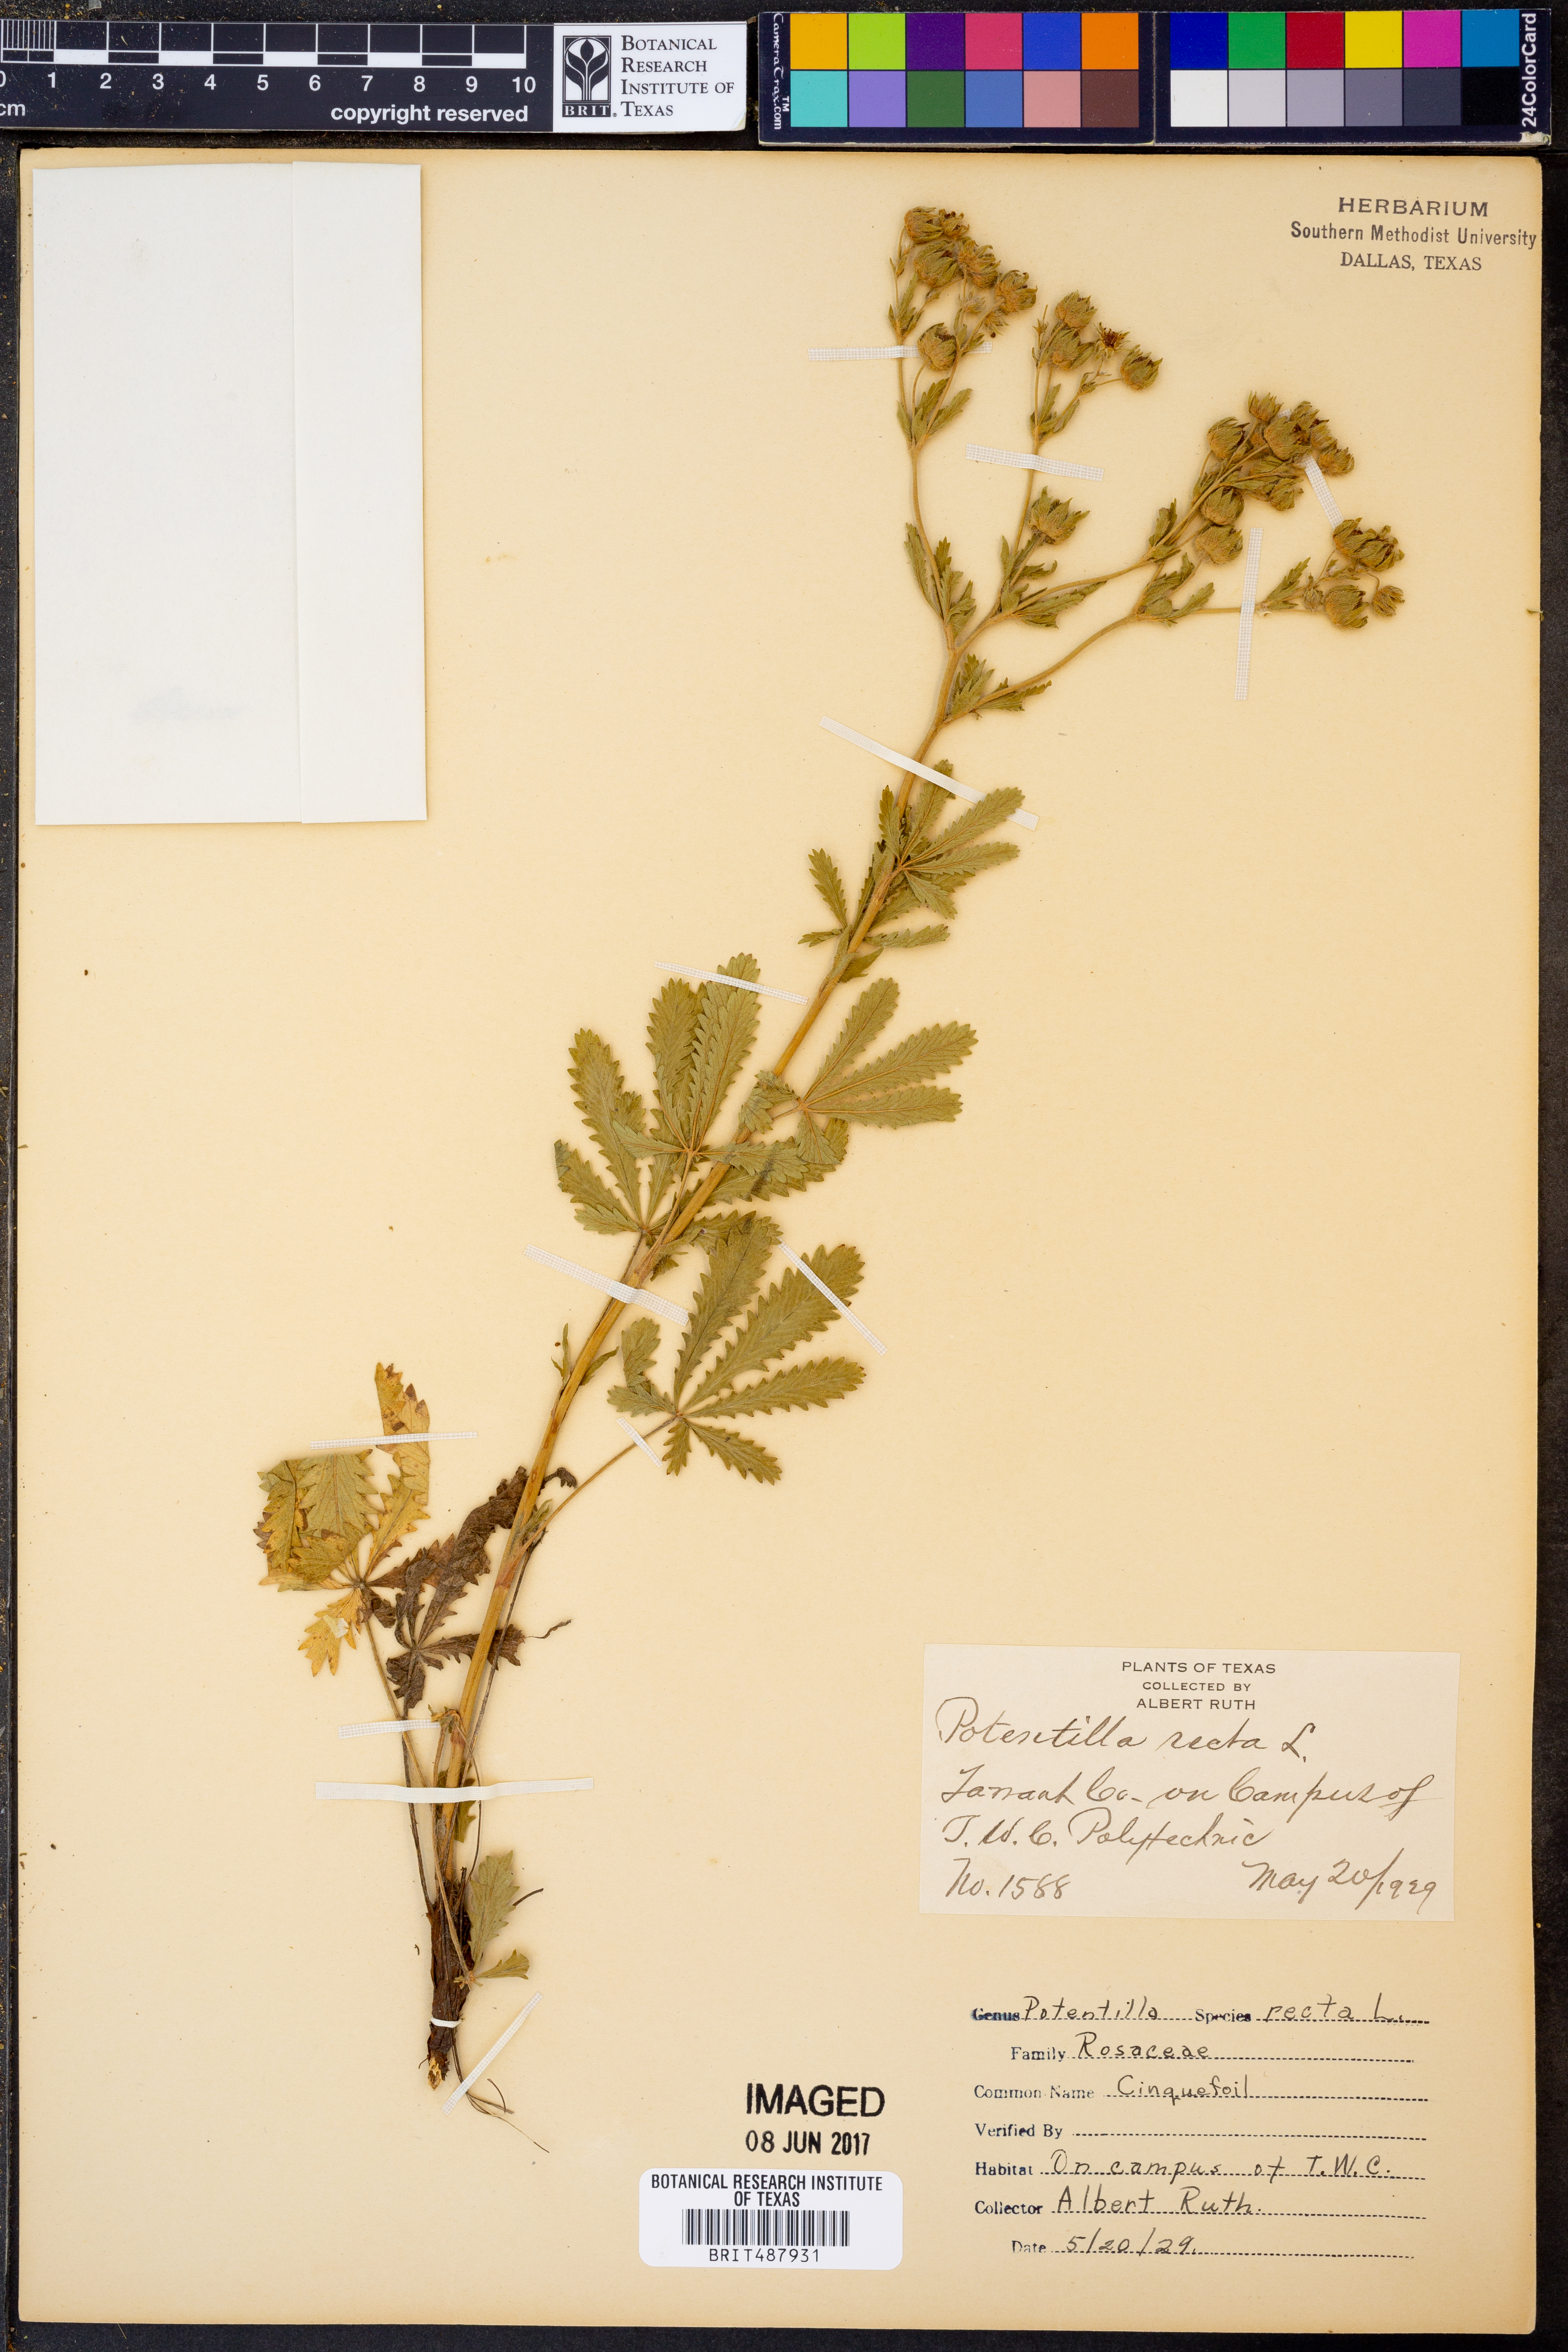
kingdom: Plantae
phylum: Tracheophyta
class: Magnoliopsida
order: Rosales
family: Rosaceae
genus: Potentilla
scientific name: Potentilla recta
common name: Sulphur cinquefoil
